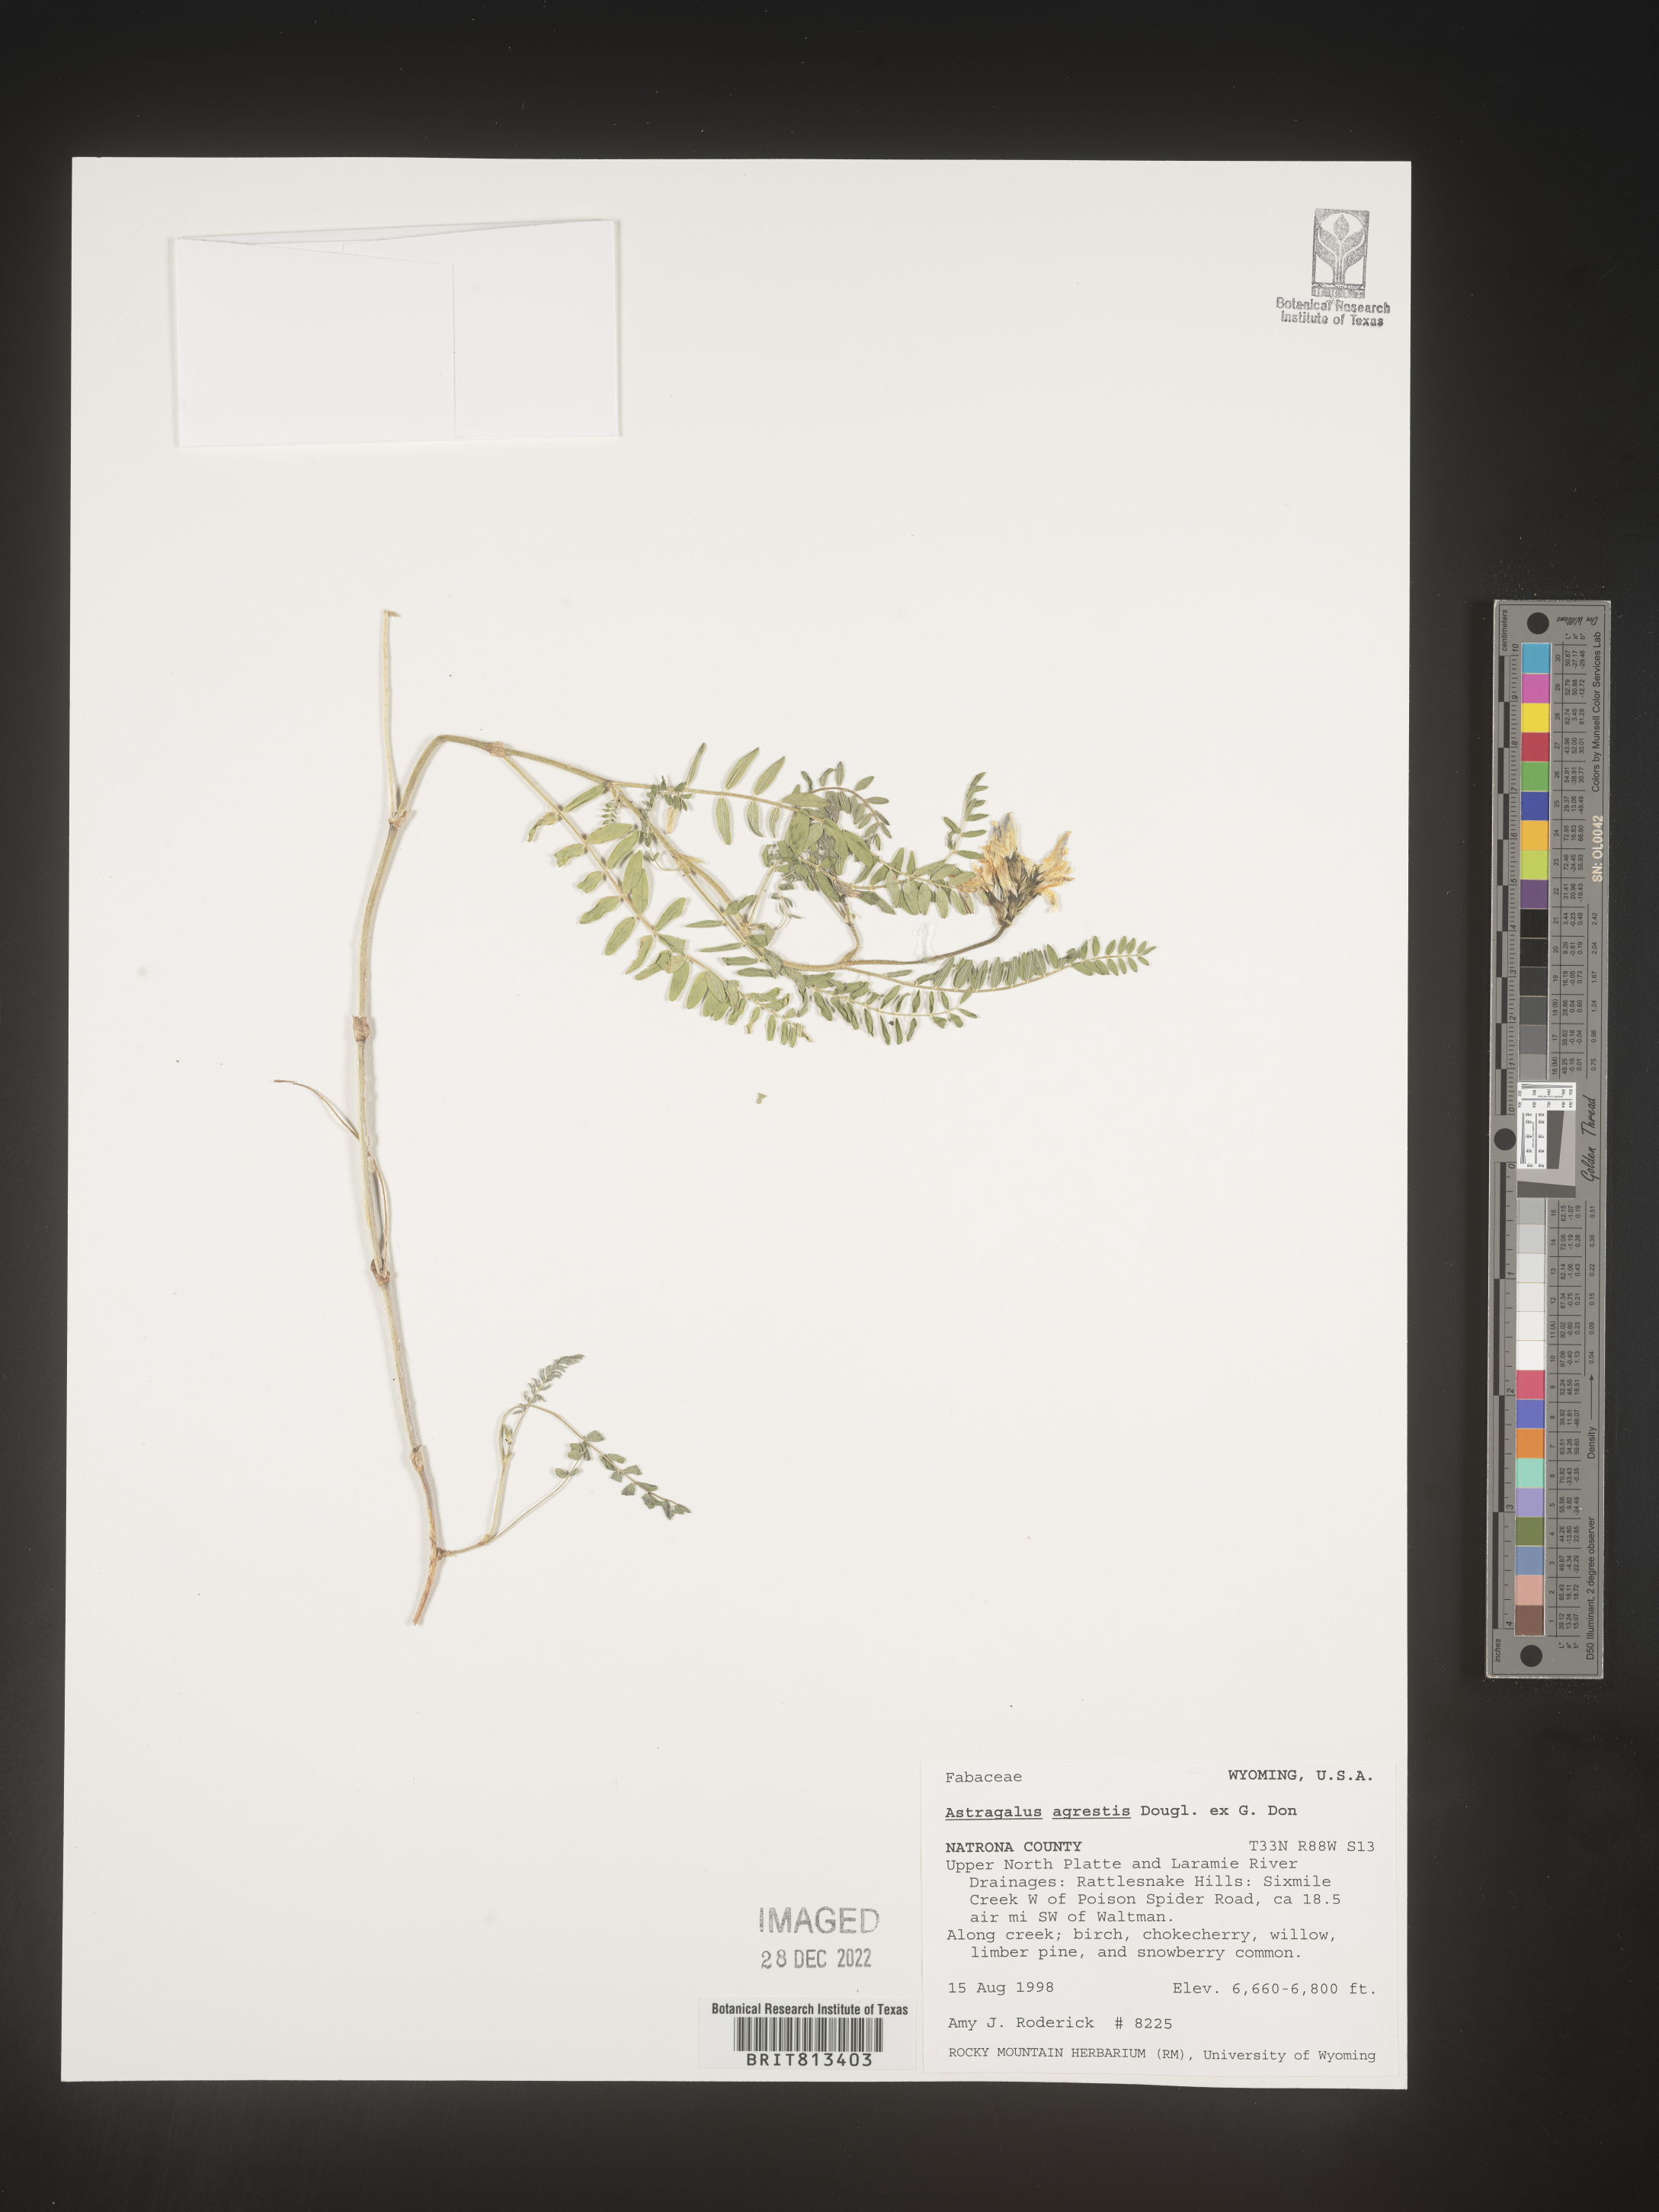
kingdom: Plantae
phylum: Tracheophyta
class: Magnoliopsida
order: Fabales
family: Fabaceae
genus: Astragalus
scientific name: Astragalus agrestis
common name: Field milk-vetch
